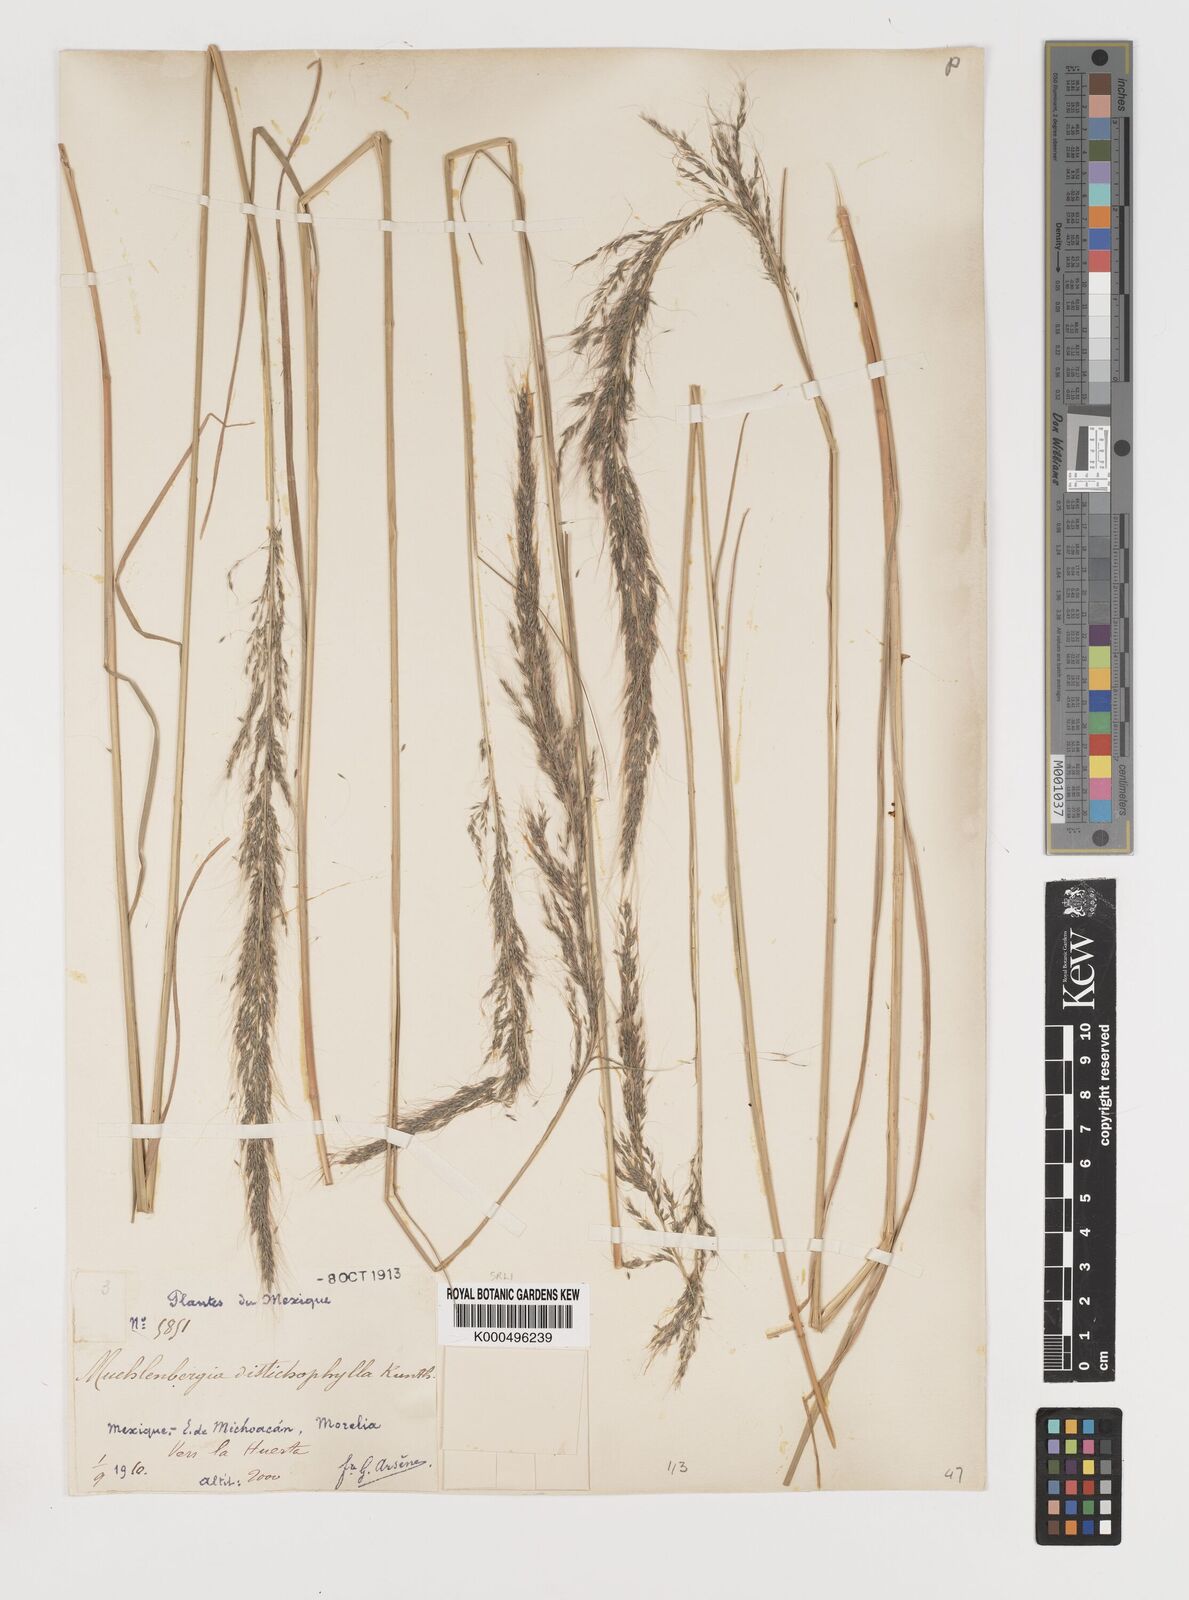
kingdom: Plantae
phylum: Tracheophyta
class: Liliopsida
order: Poales
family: Poaceae
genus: Muhlenbergia
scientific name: Muhlenbergia
